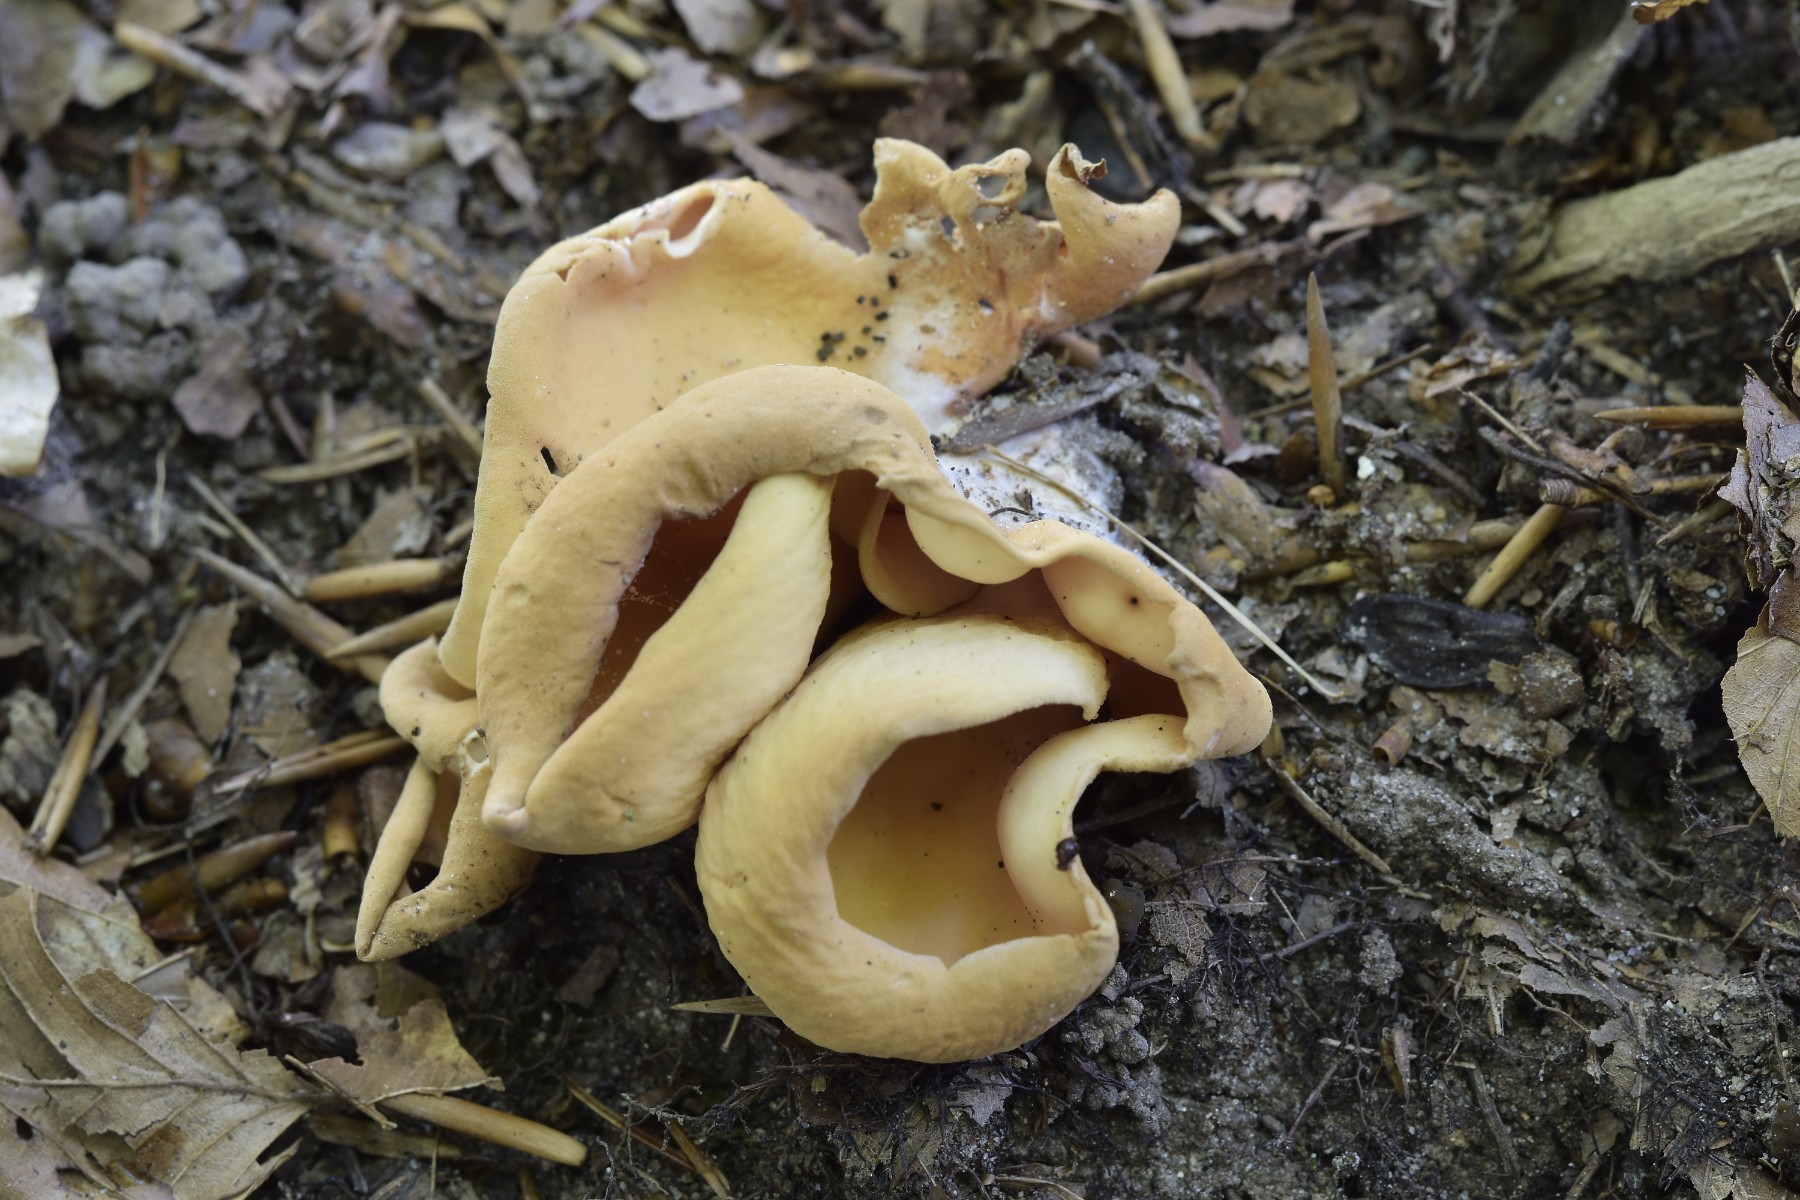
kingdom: Fungi
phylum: Ascomycota
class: Pezizomycetes
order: Pezizales
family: Otideaceae
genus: Otidea
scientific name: Otidea onotica
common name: æsel-ørebæger
